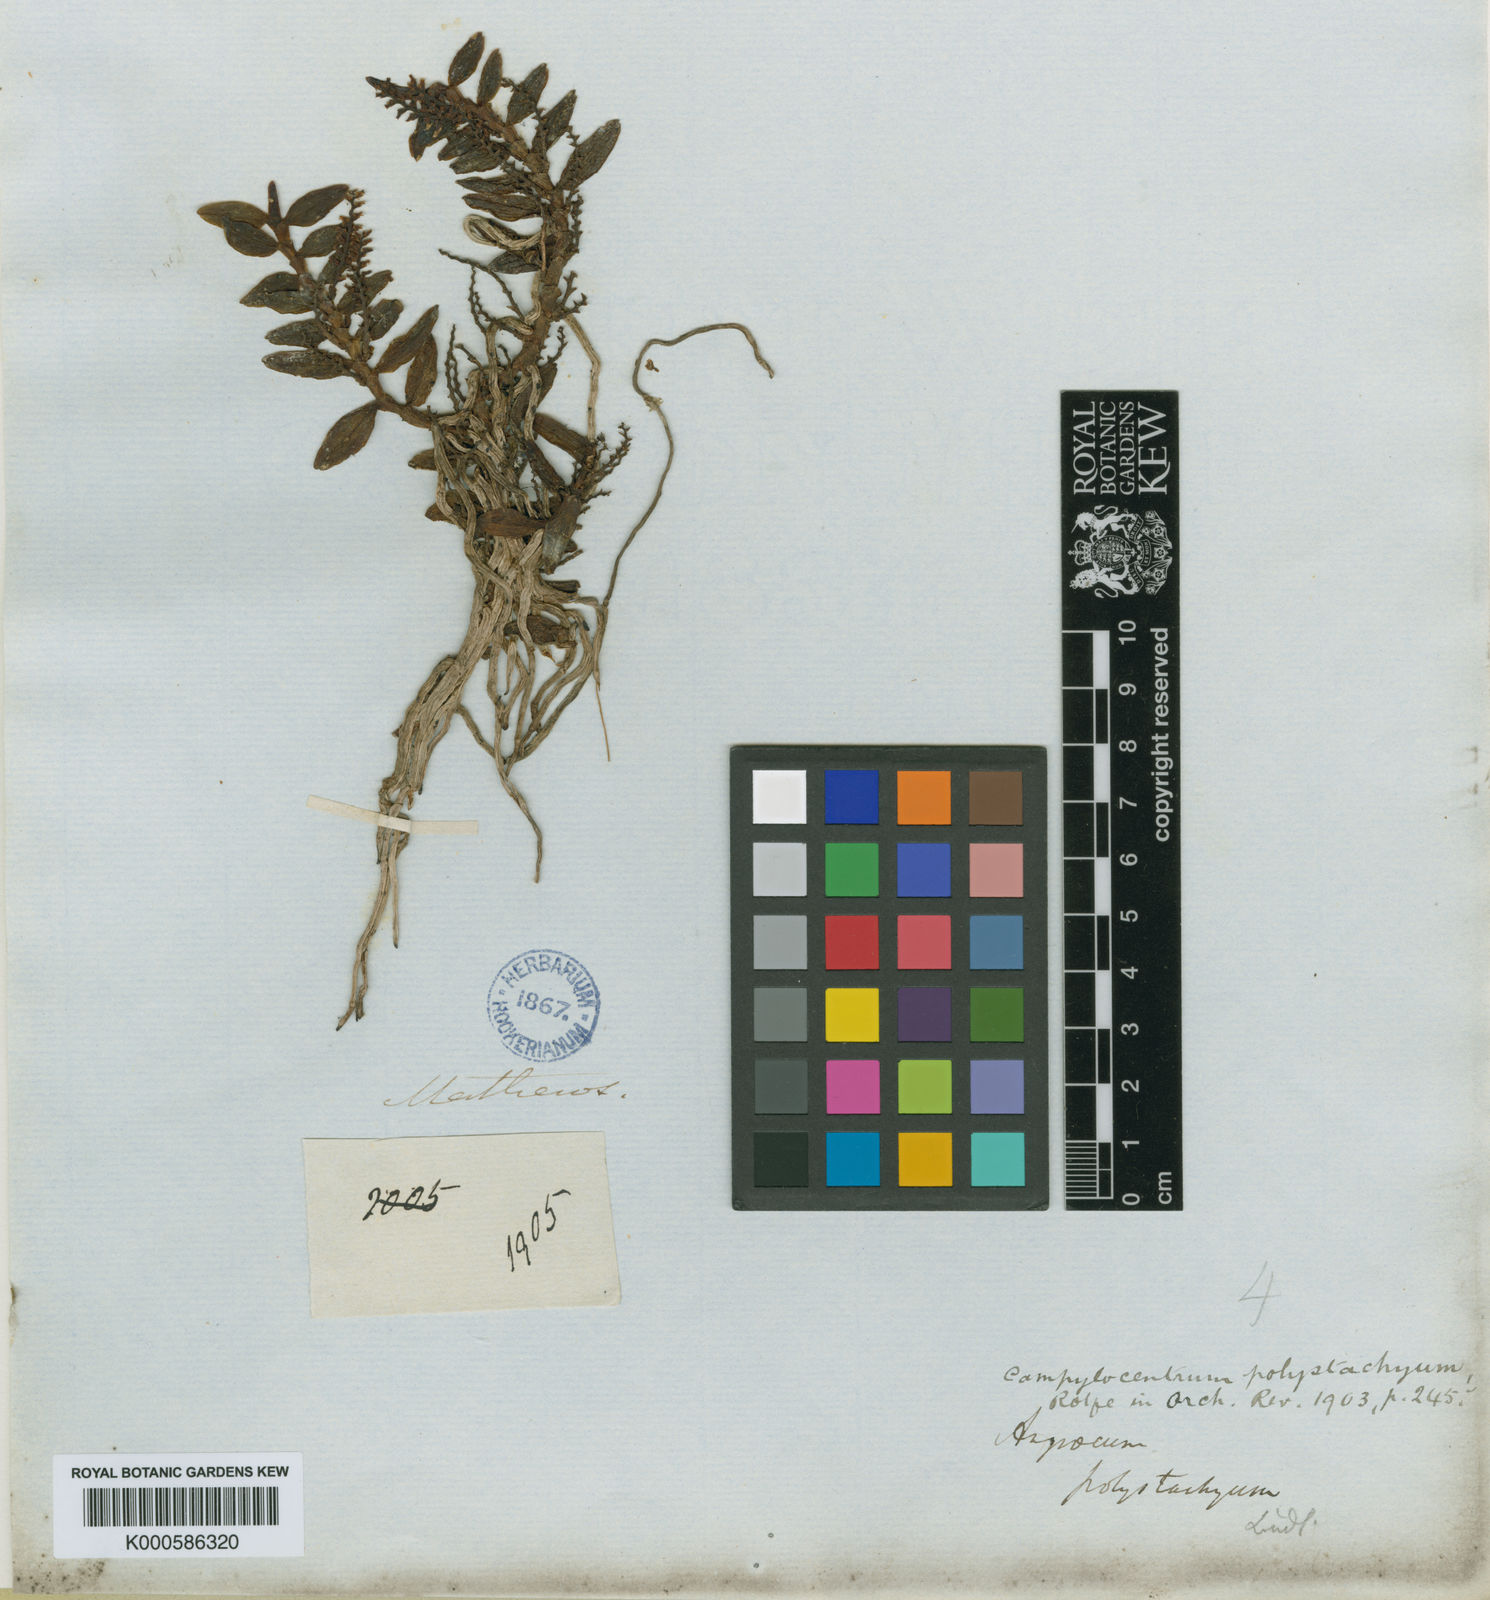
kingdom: Plantae
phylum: Tracheophyta
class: Liliopsida
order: Asparagales
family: Orchidaceae
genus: Campylocentrum
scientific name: Campylocentrum polystachyum
